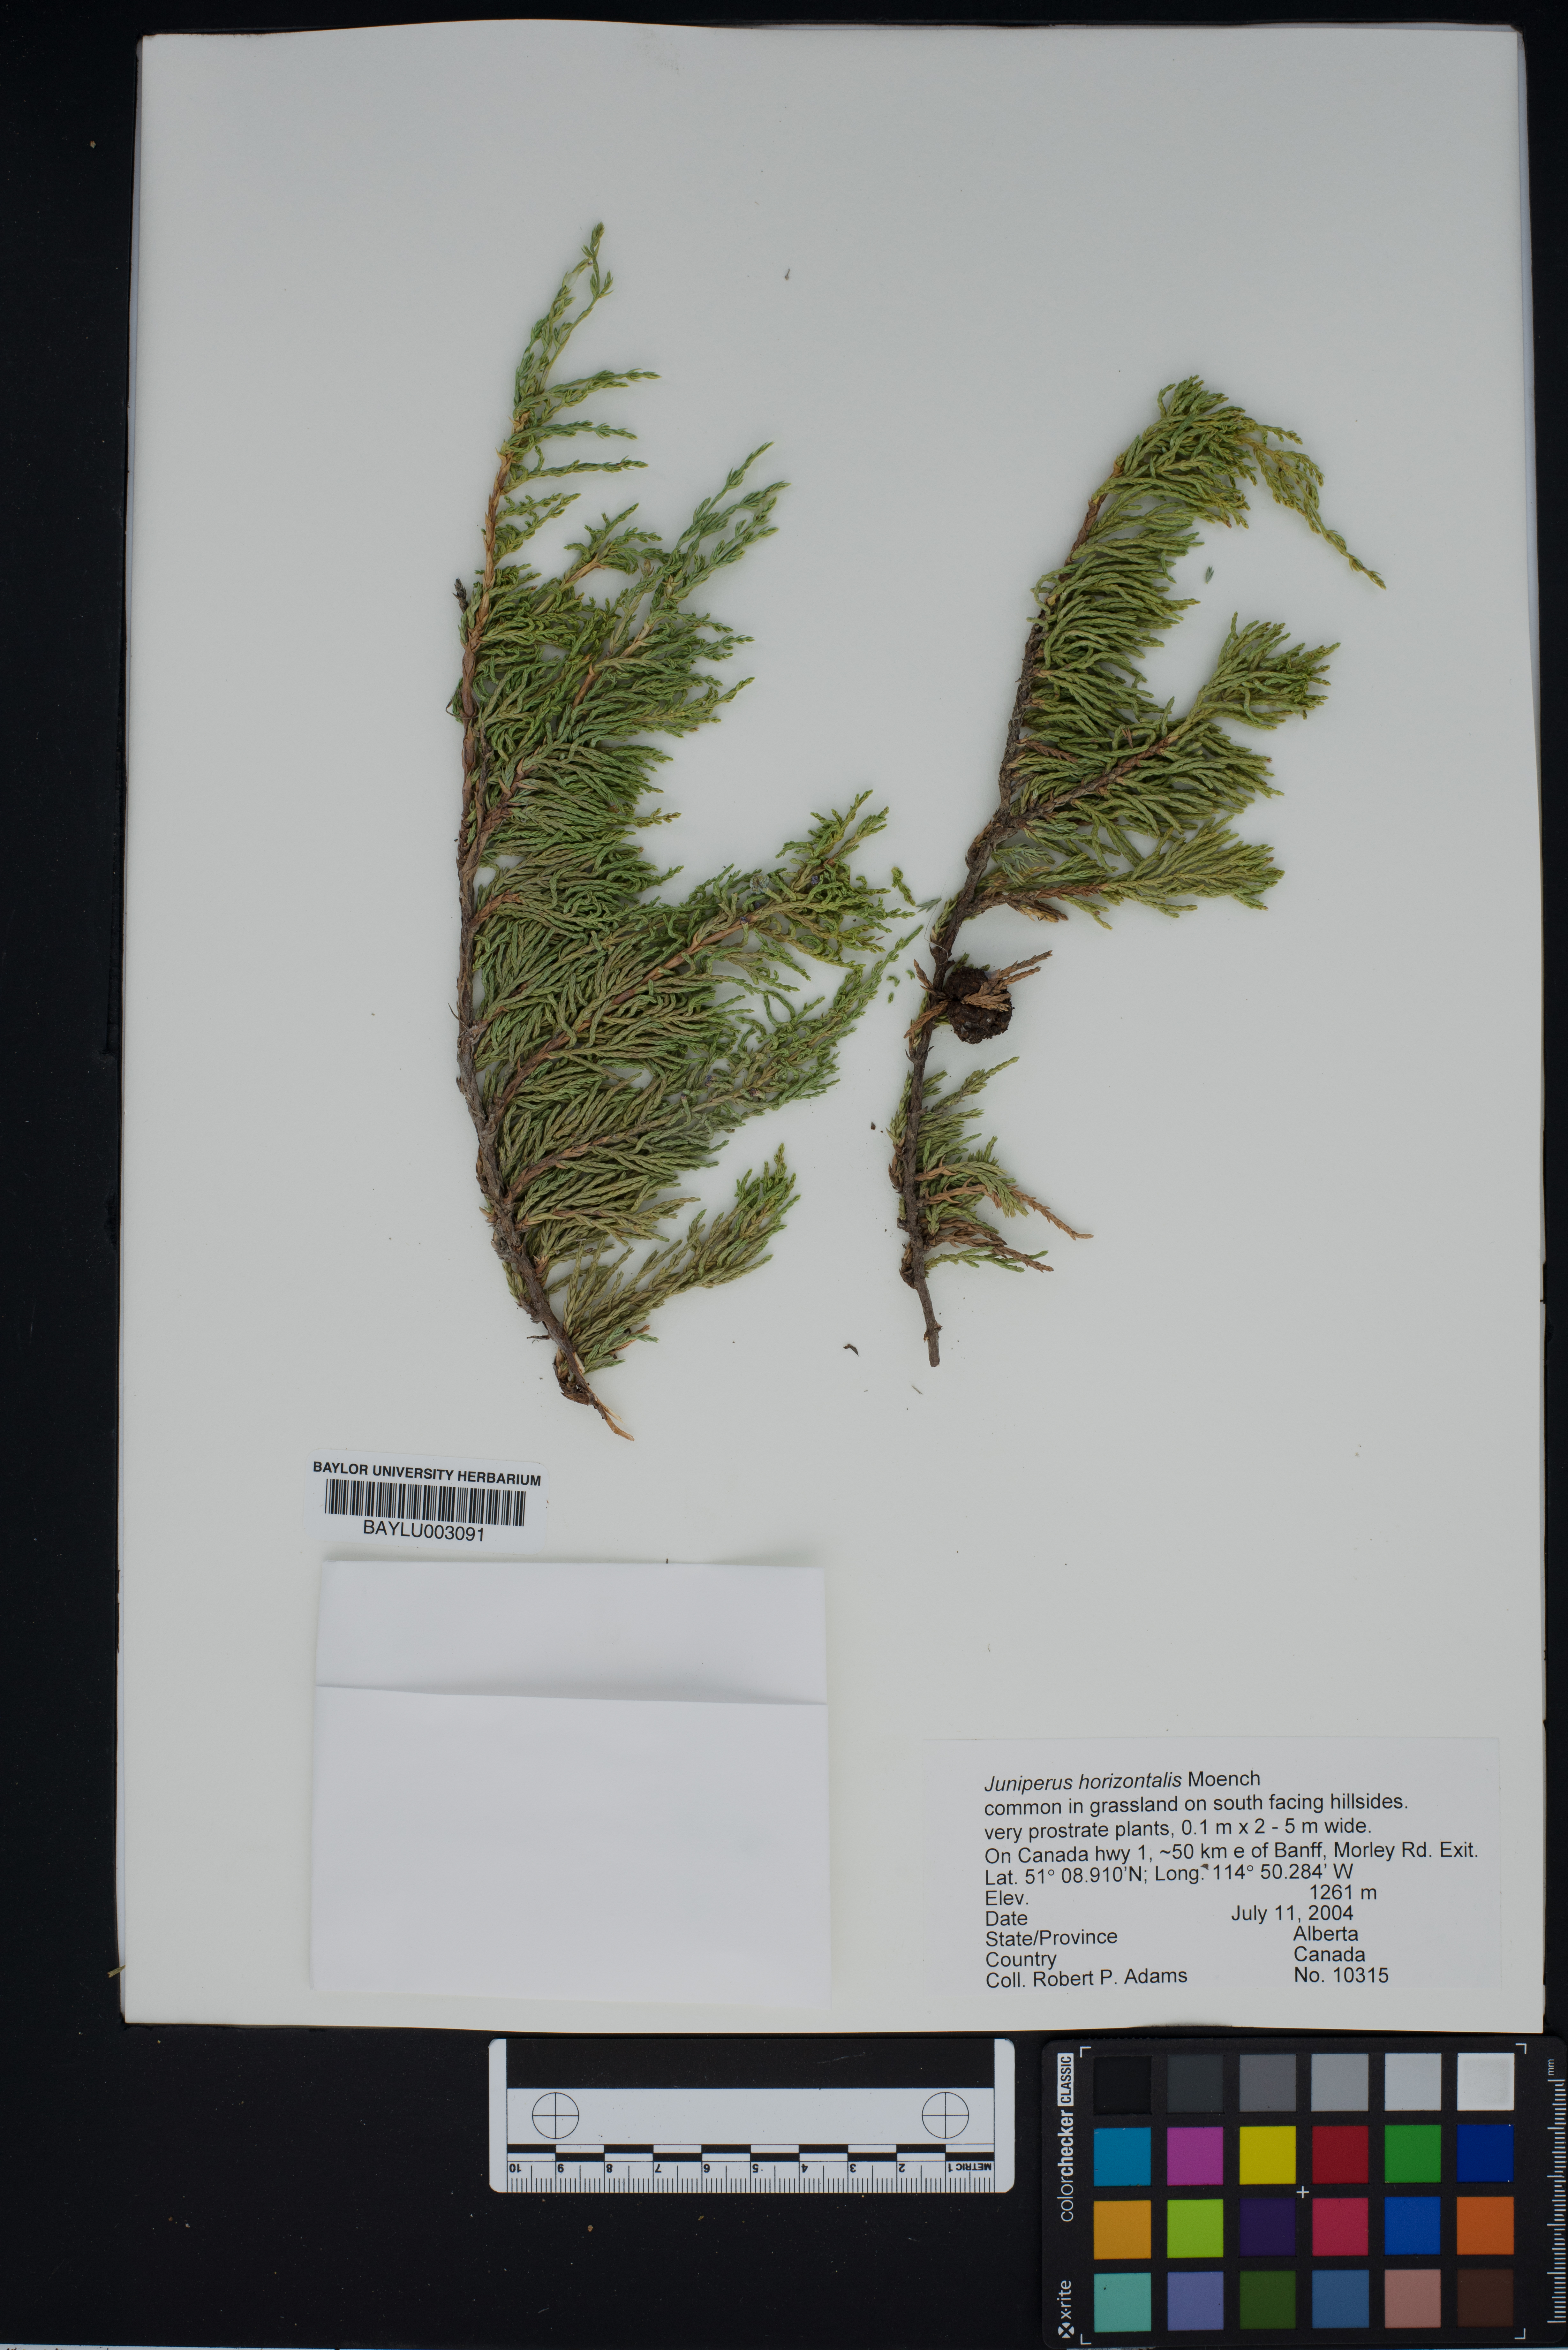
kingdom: Plantae
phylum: Tracheophyta
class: Pinopsida
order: Pinales
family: Cupressaceae
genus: Juniperus
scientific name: Juniperus horizontalis
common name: Creeping juniper
